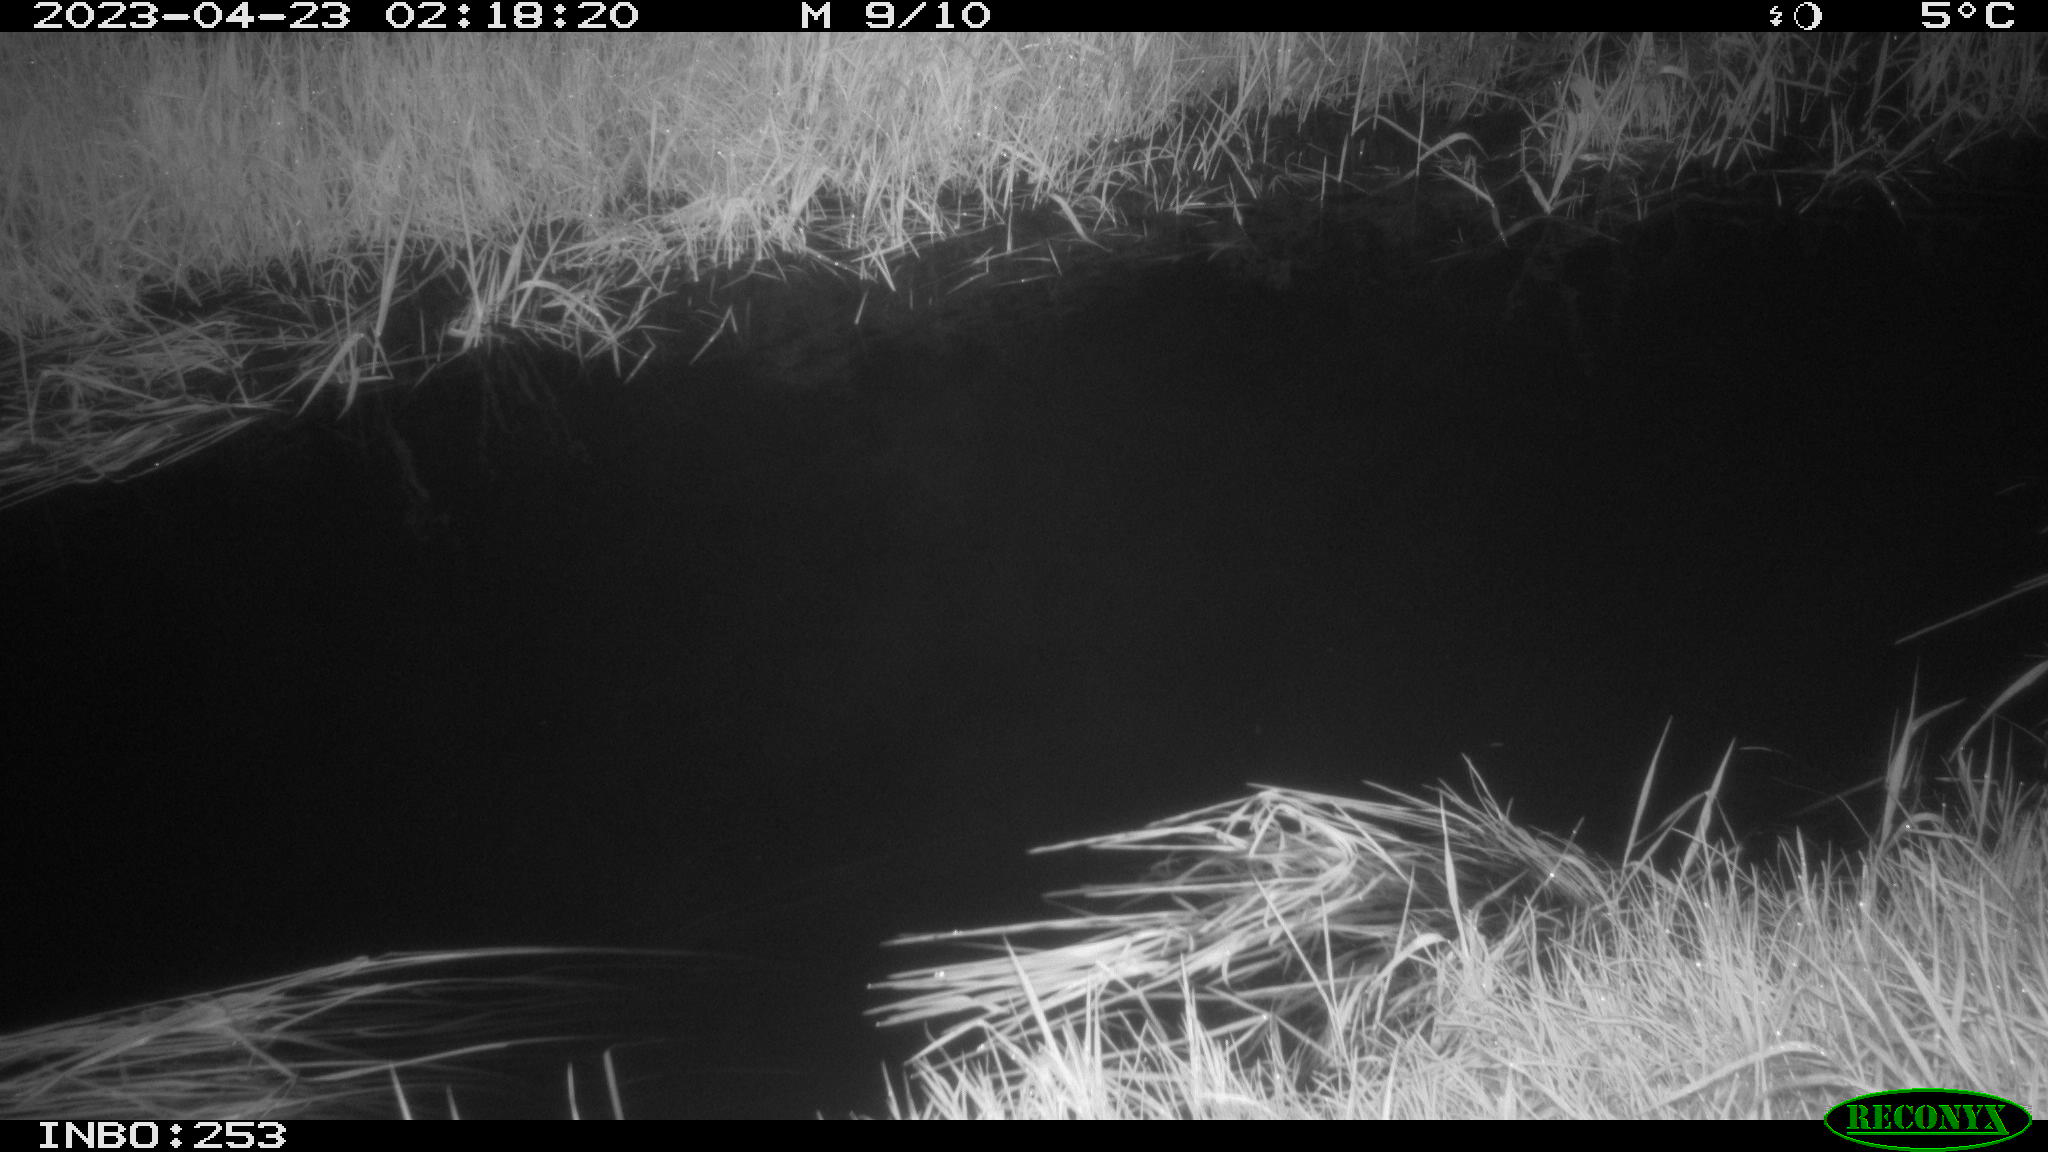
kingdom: Animalia
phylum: Chordata
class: Aves
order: Anseriformes
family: Anatidae
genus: Anas
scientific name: Anas
